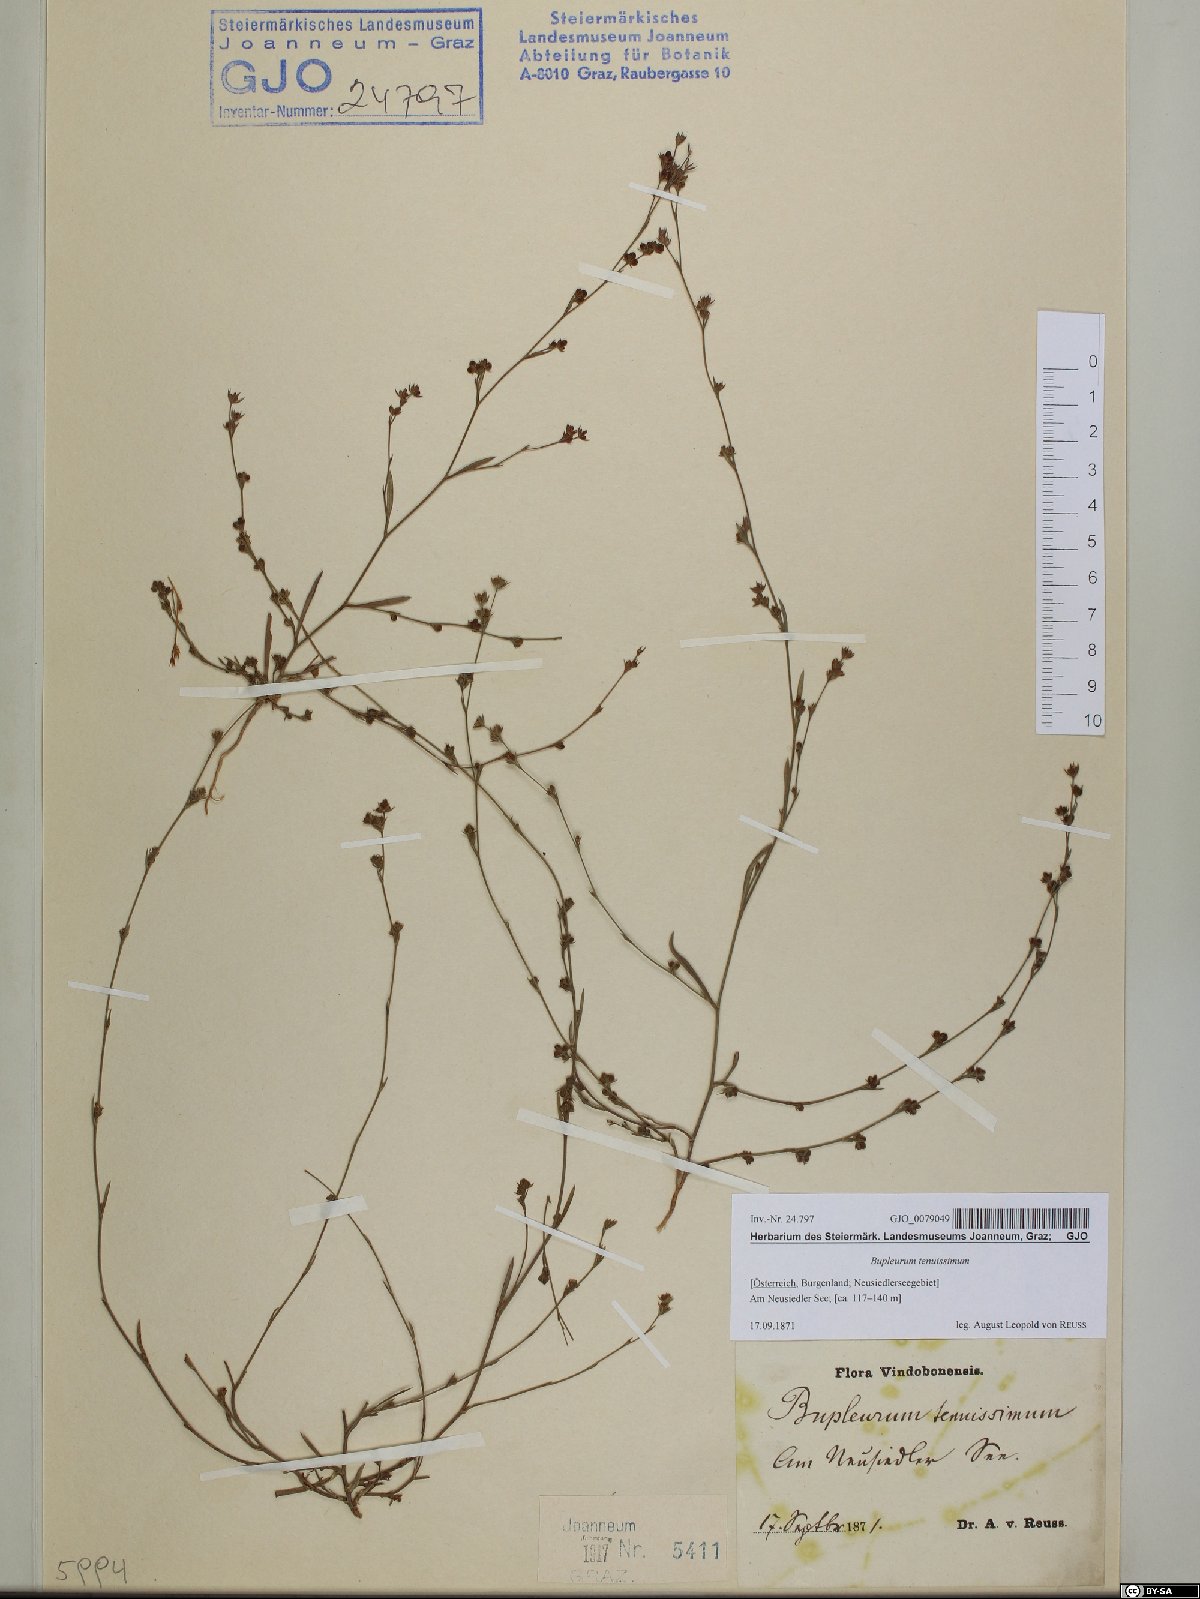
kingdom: Plantae
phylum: Tracheophyta
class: Magnoliopsida
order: Apiales
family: Apiaceae
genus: Bupleurum
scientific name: Bupleurum tenuissimum
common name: Slender hare's-ear
